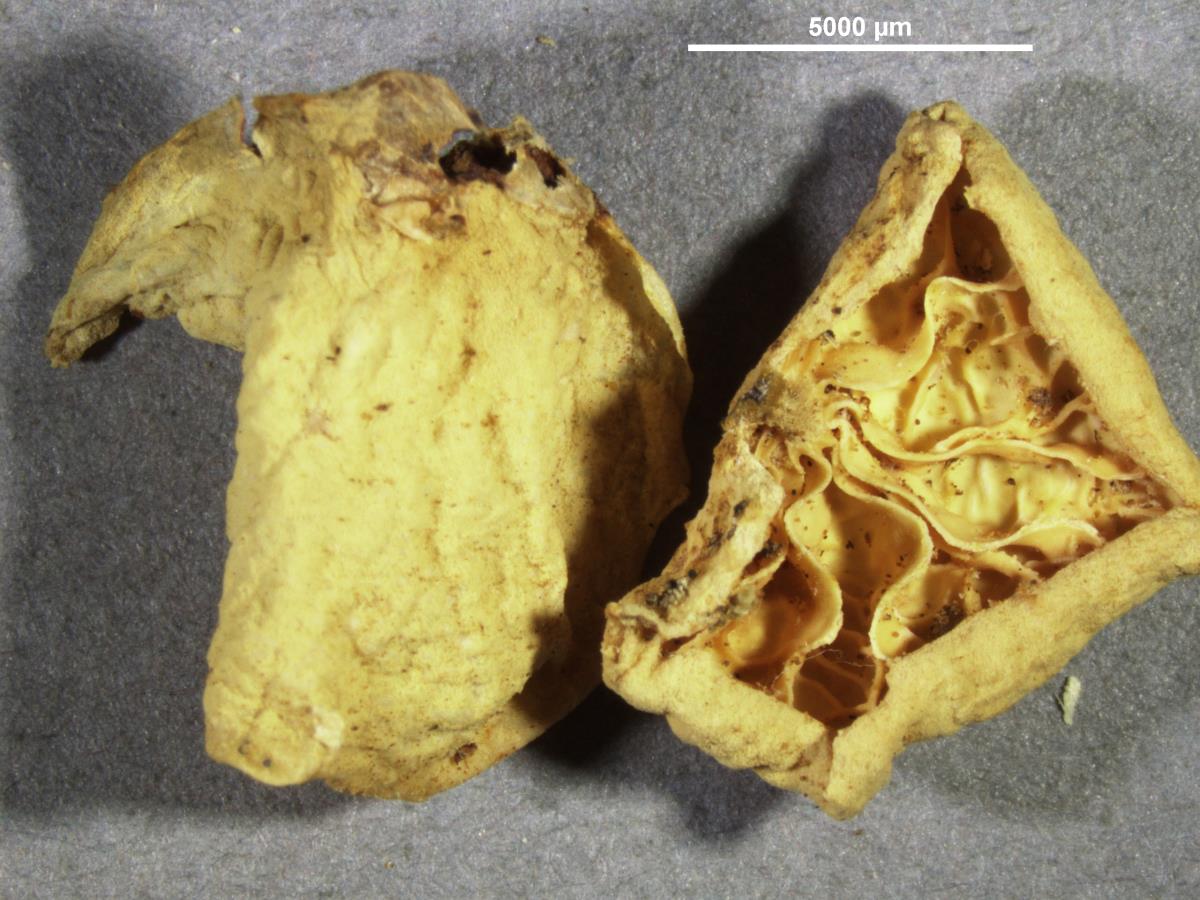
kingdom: Fungi
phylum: Basidiomycota
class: Agaricomycetes
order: Agaricales
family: Marasmiaceae
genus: Campanella
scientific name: Campanella tristis
